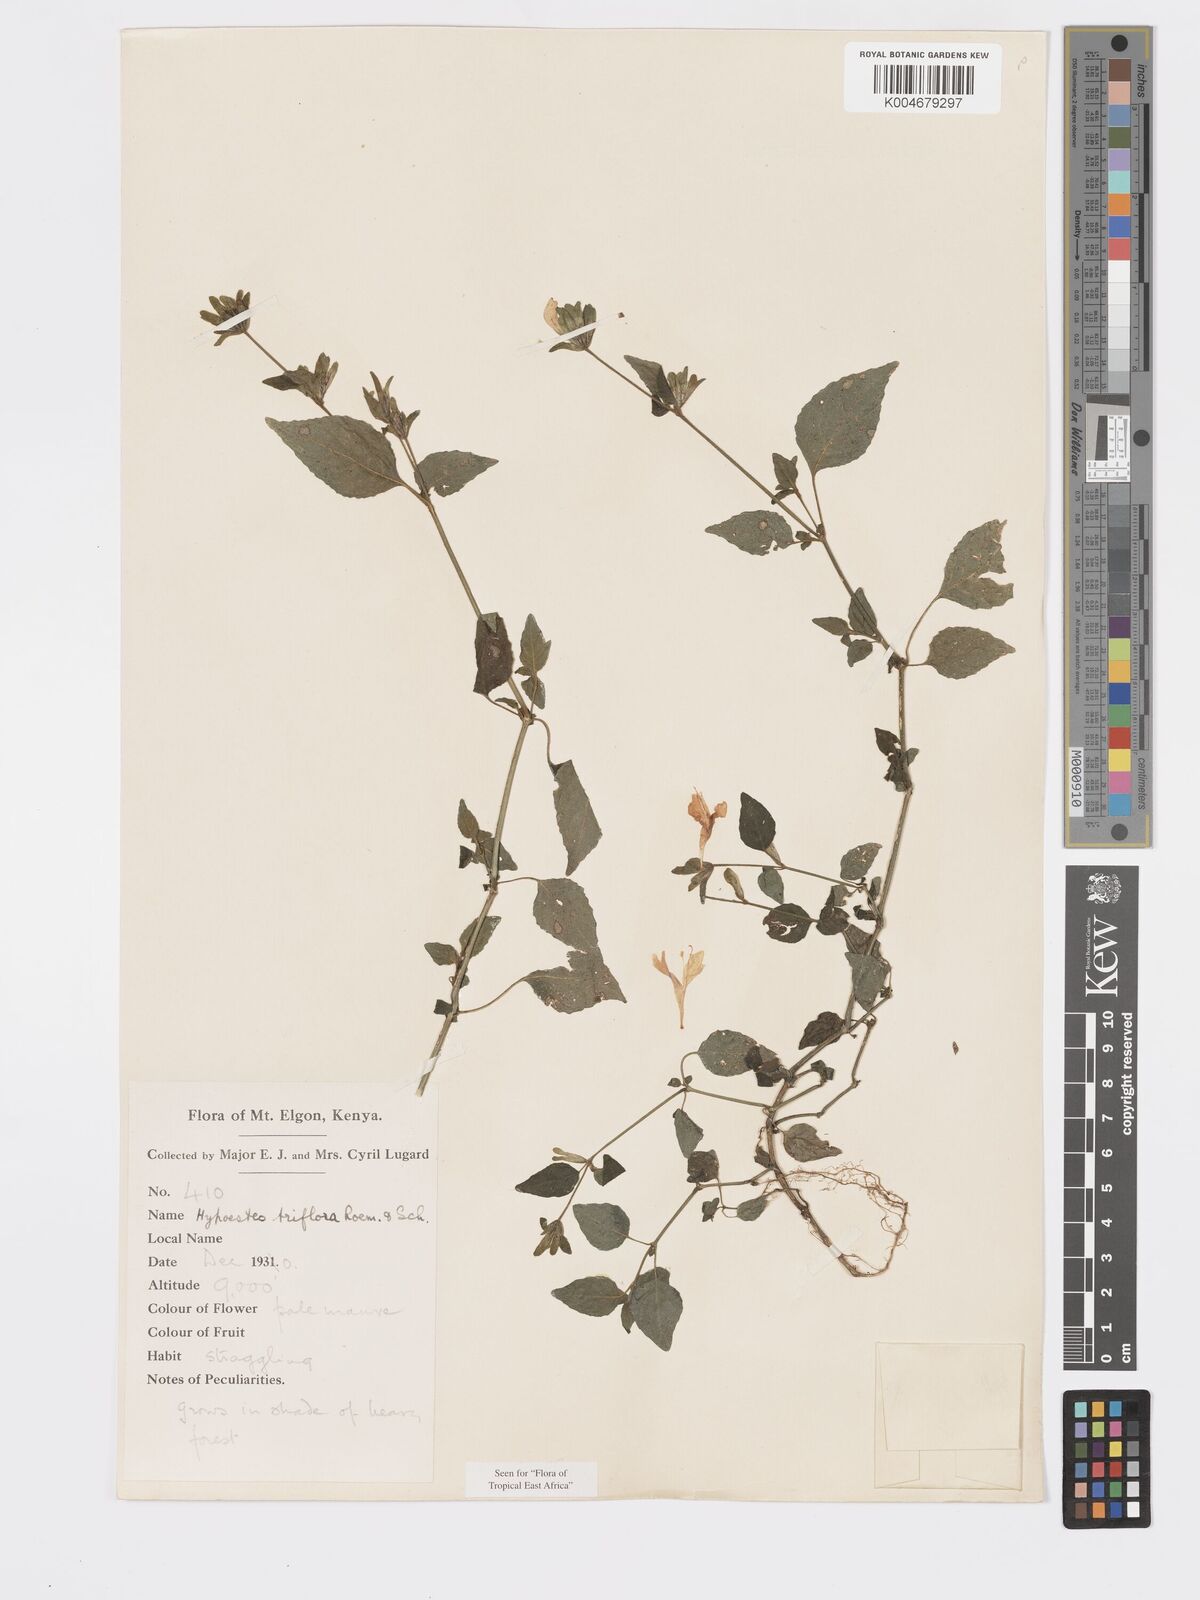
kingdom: Plantae
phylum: Tracheophyta
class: Magnoliopsida
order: Lamiales
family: Acanthaceae
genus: Hypoestes
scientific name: Hypoestes triflora
